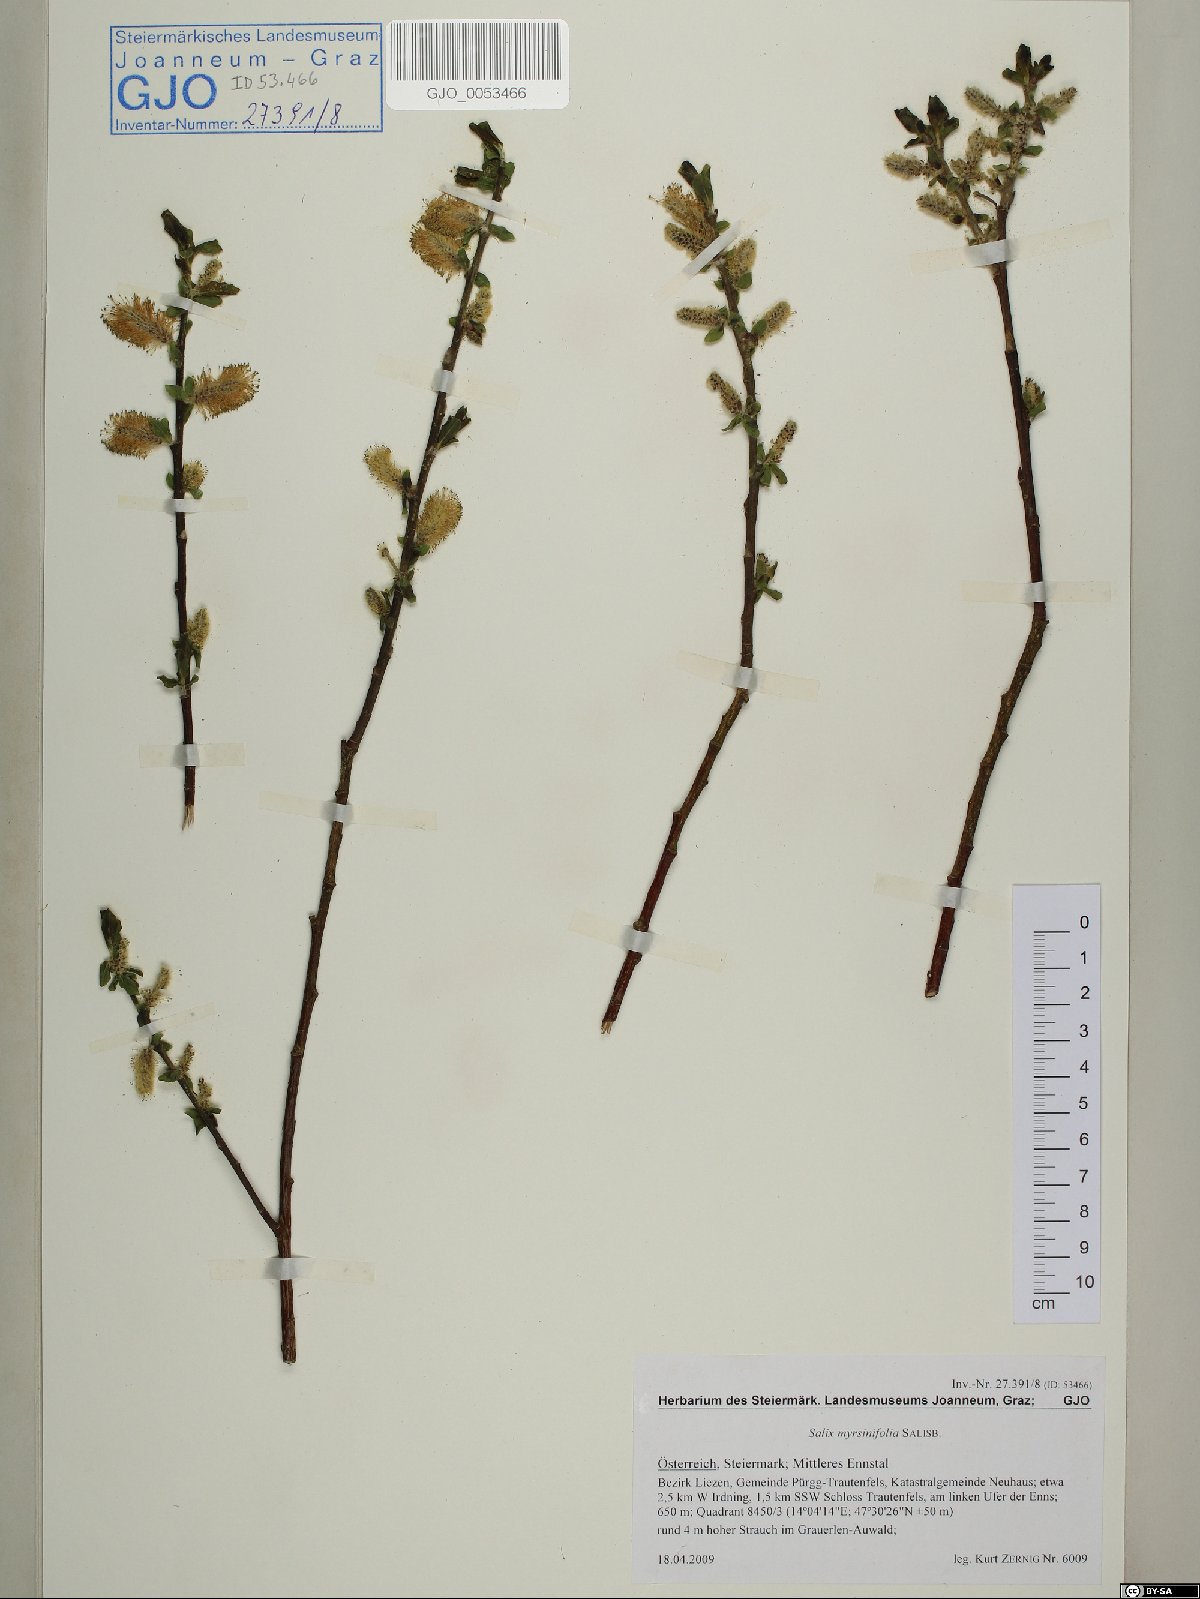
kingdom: Plantae
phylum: Tracheophyta
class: Magnoliopsida
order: Malpighiales
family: Salicaceae
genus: Salix
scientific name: Salix myrsinifolia
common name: Dark-leaved willow
